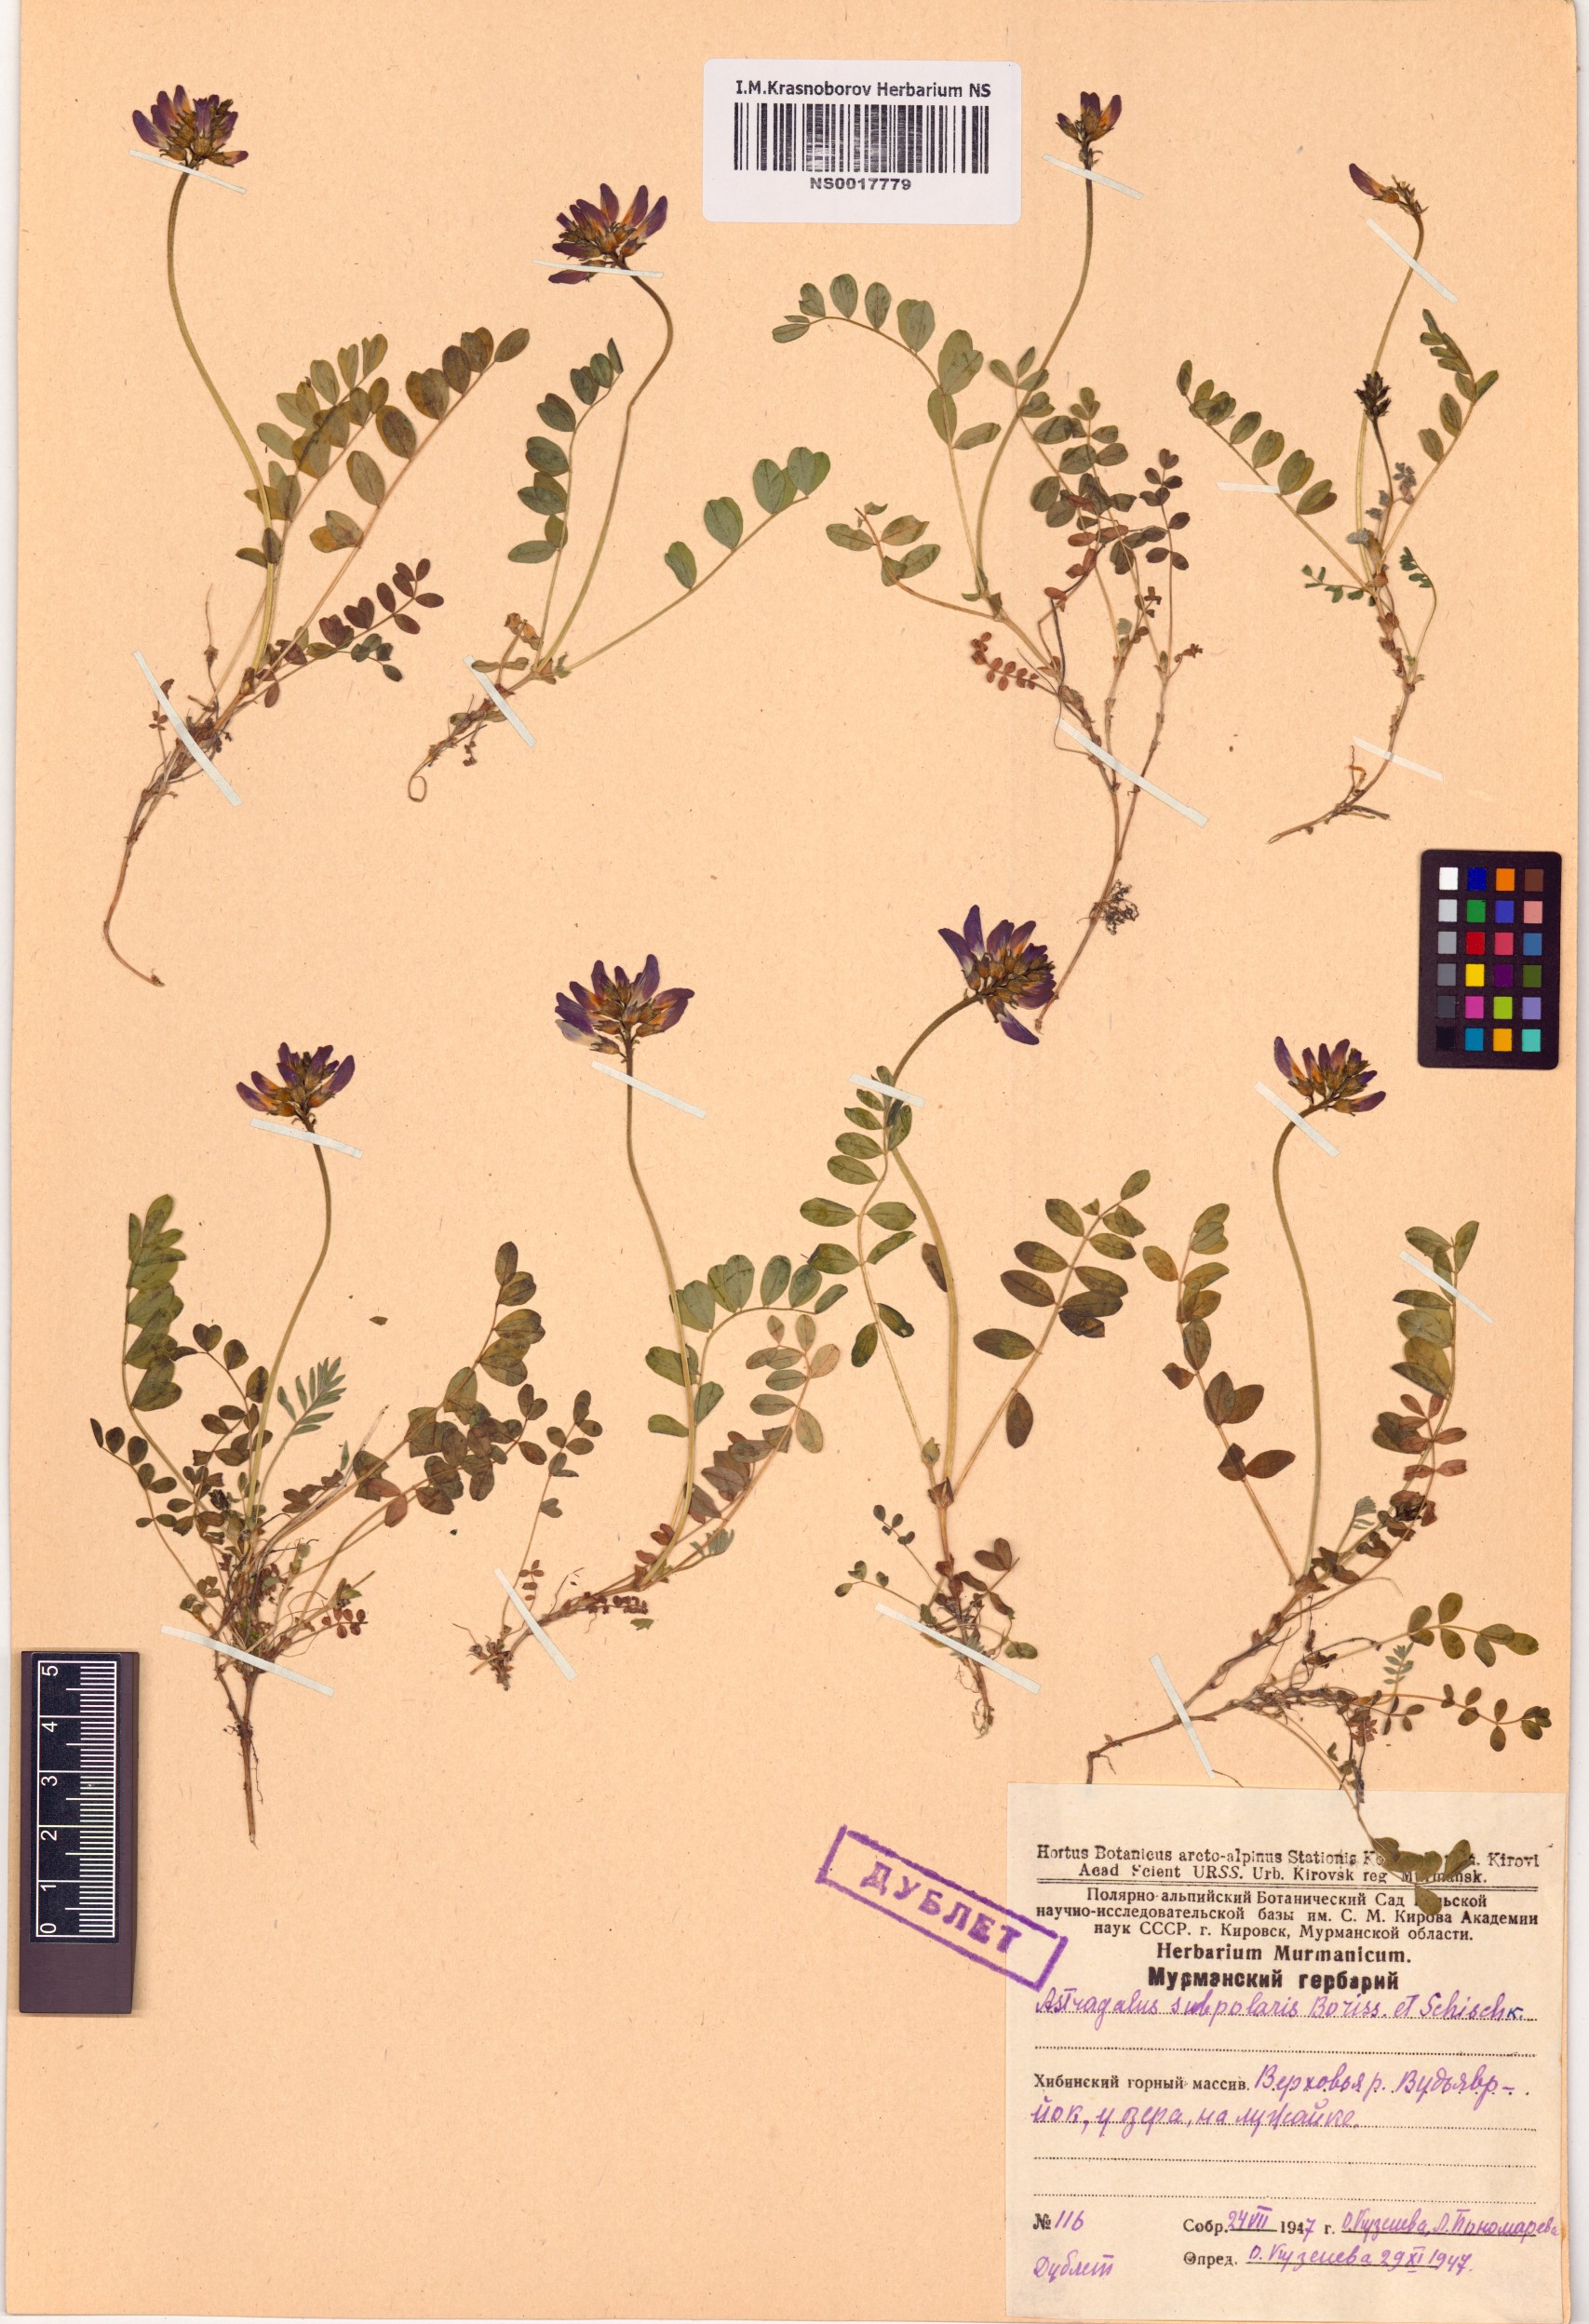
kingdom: Plantae
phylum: Tracheophyta
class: Magnoliopsida
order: Fabales
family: Fabaceae
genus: Astragalus
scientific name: Astragalus norvegicus
